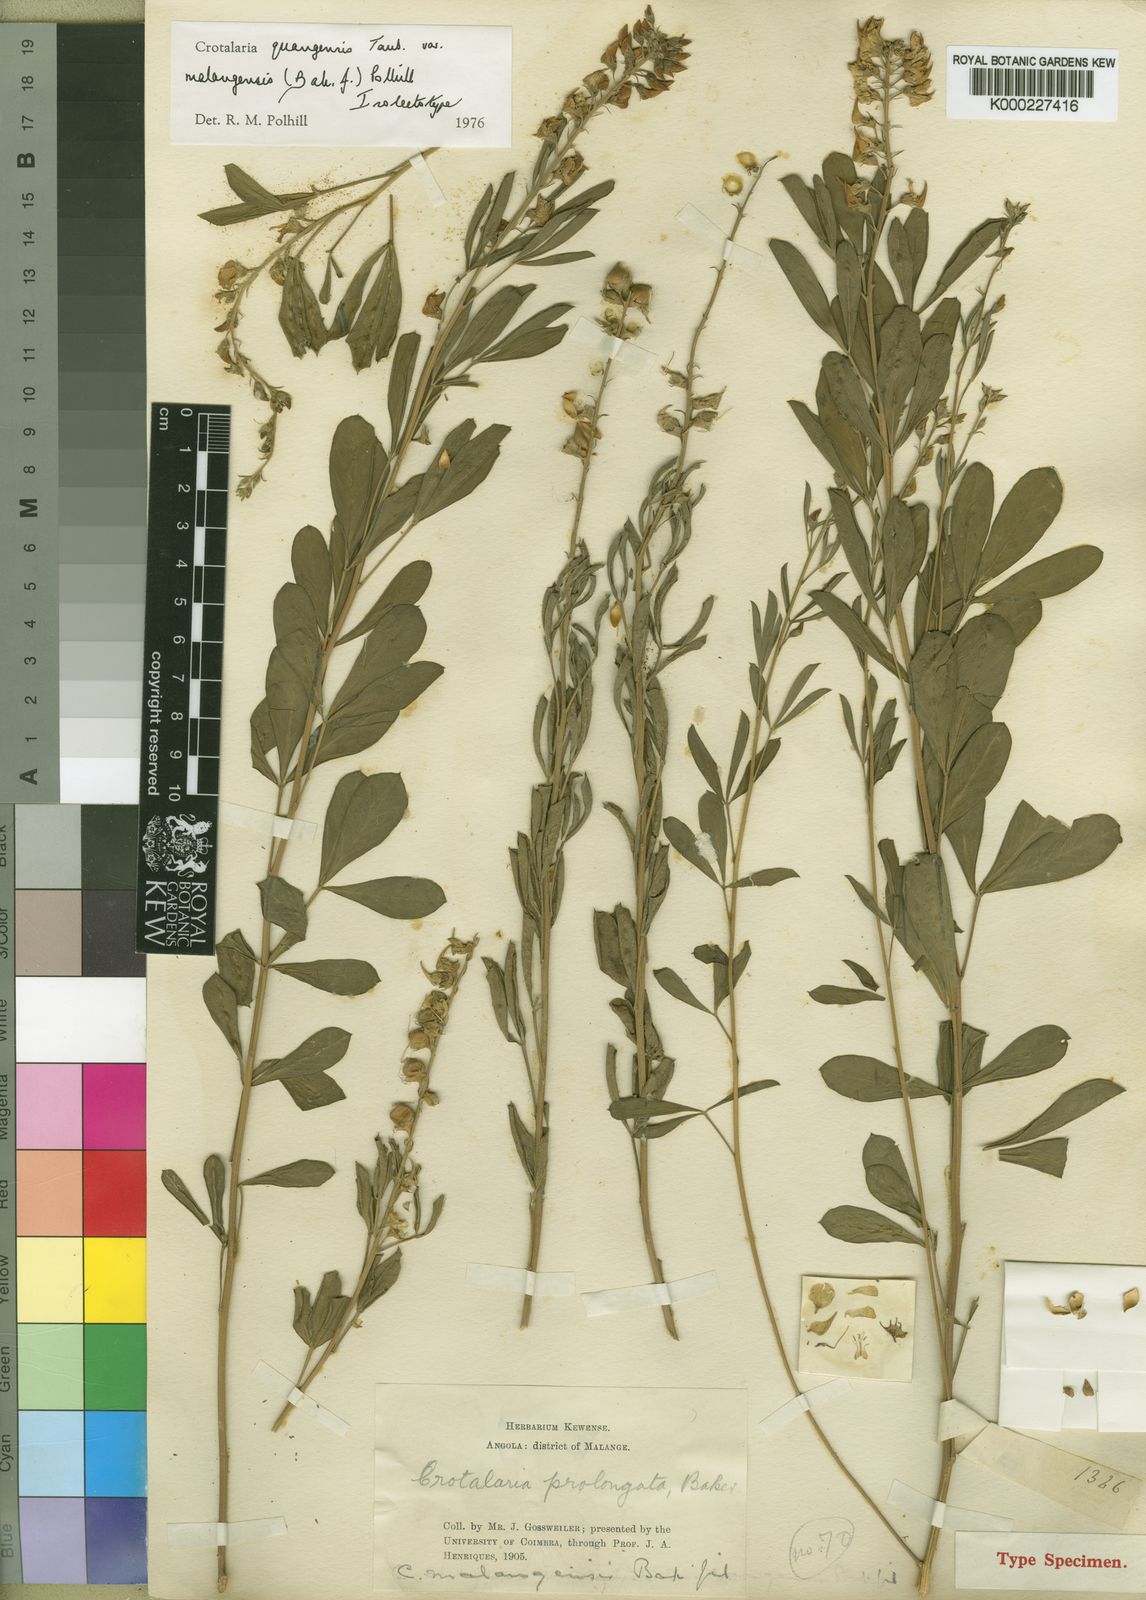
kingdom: Plantae
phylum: Tracheophyta
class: Magnoliopsida
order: Fabales
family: Fabaceae
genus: Crotalaria
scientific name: Crotalaria quangensis
